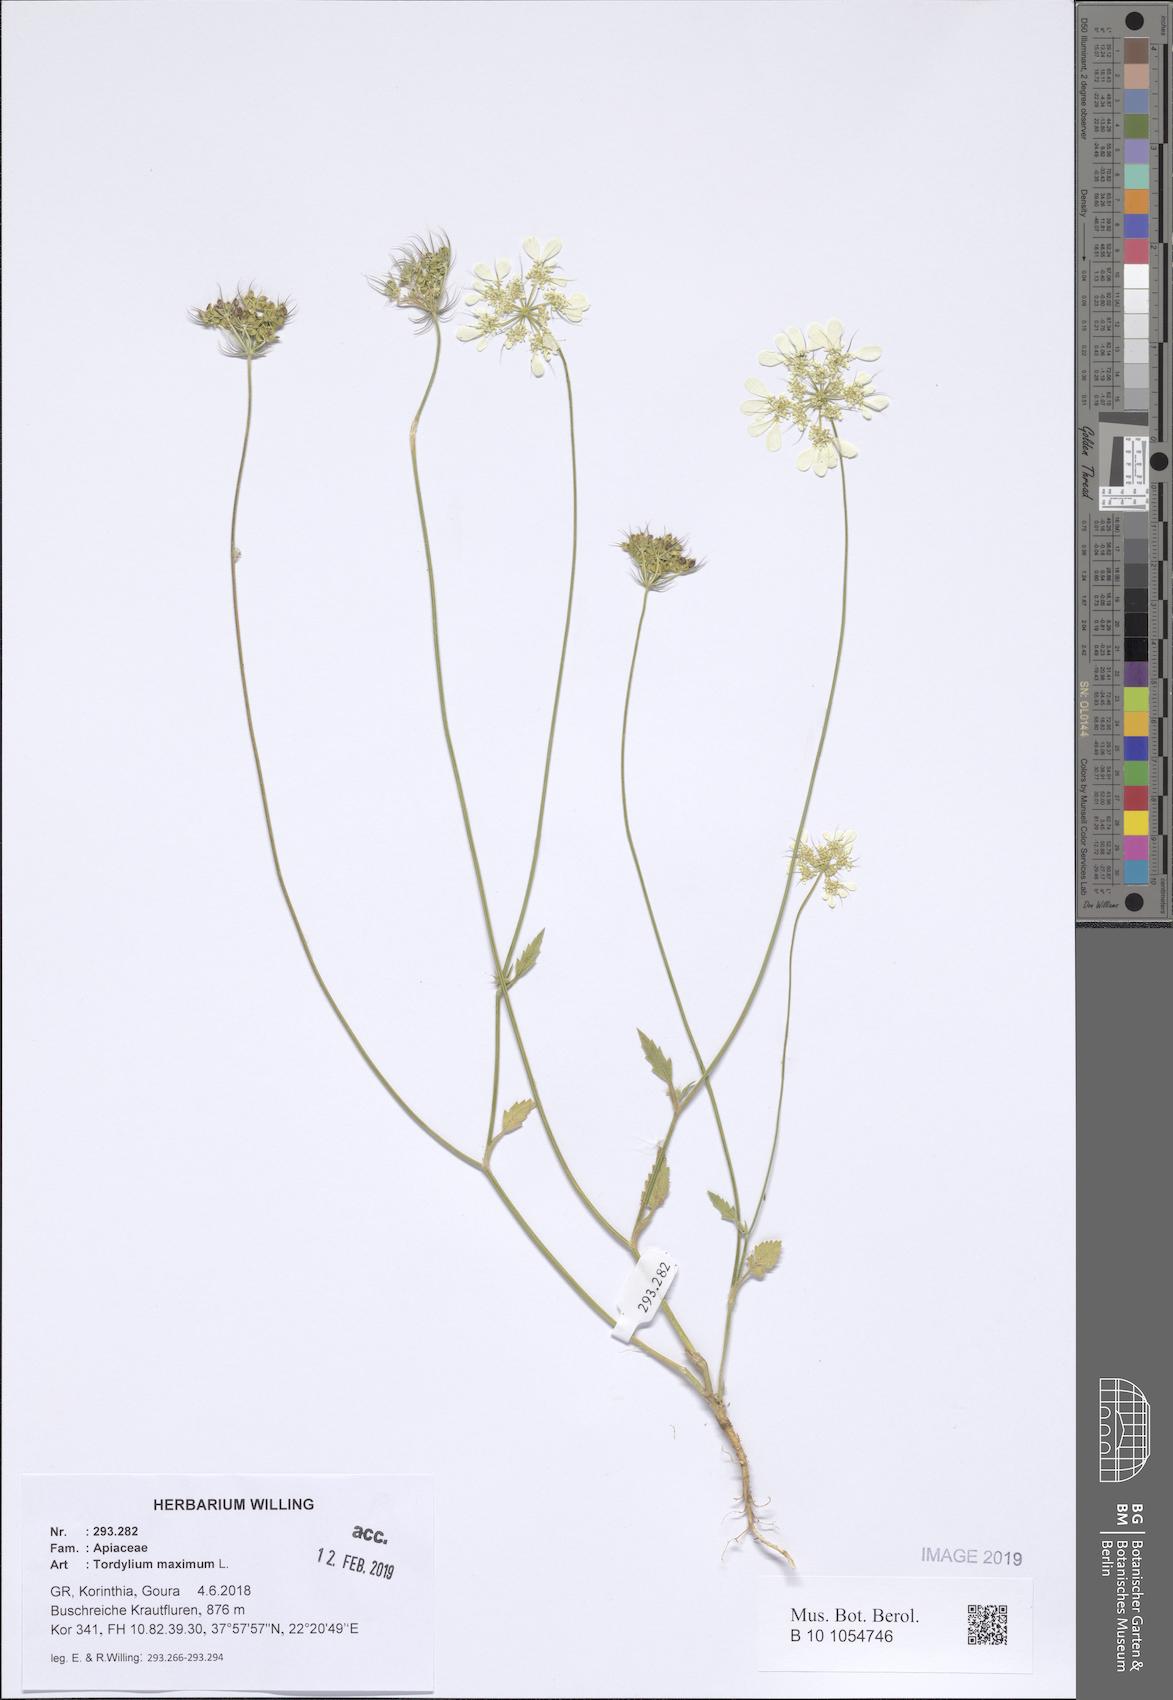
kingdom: Plantae
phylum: Tracheophyta
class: Magnoliopsida
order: Apiales
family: Apiaceae
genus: Tordylium
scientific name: Tordylium maximum
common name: Hartwort
